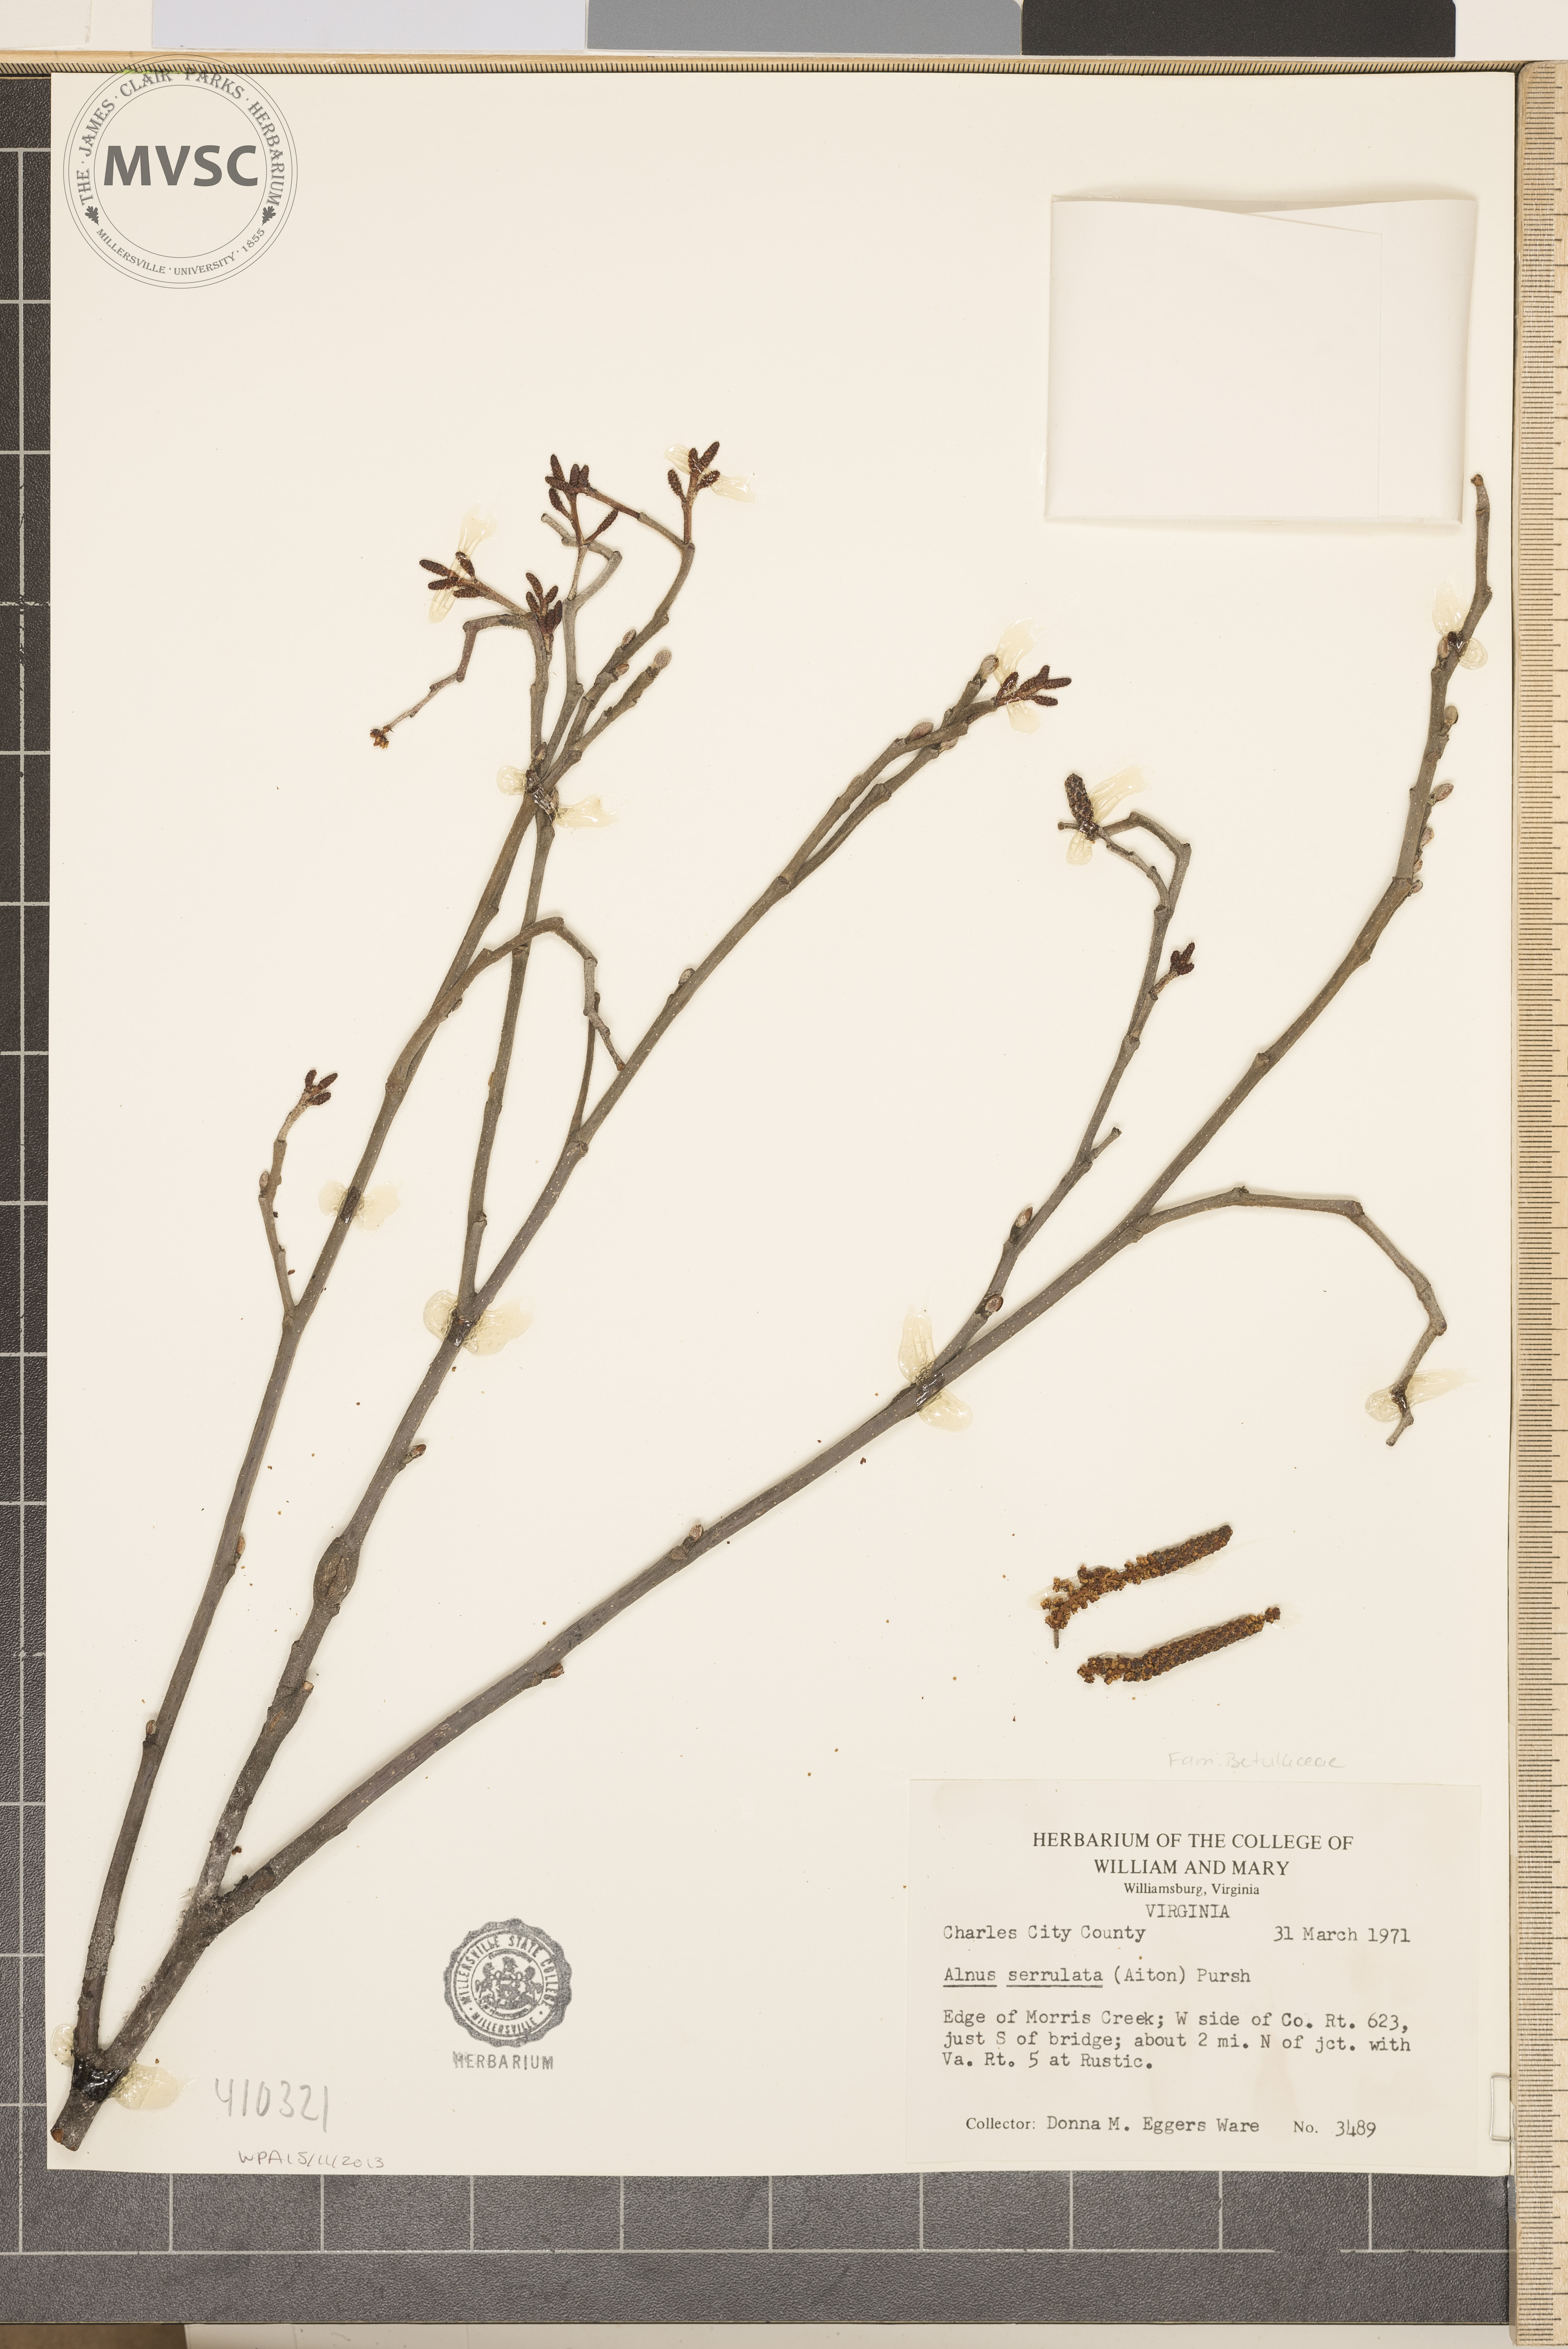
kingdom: Plantae
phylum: Tracheophyta
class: Magnoliopsida
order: Fagales
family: Betulaceae
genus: Alnus
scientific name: Alnus serrulata
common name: smooth alder
